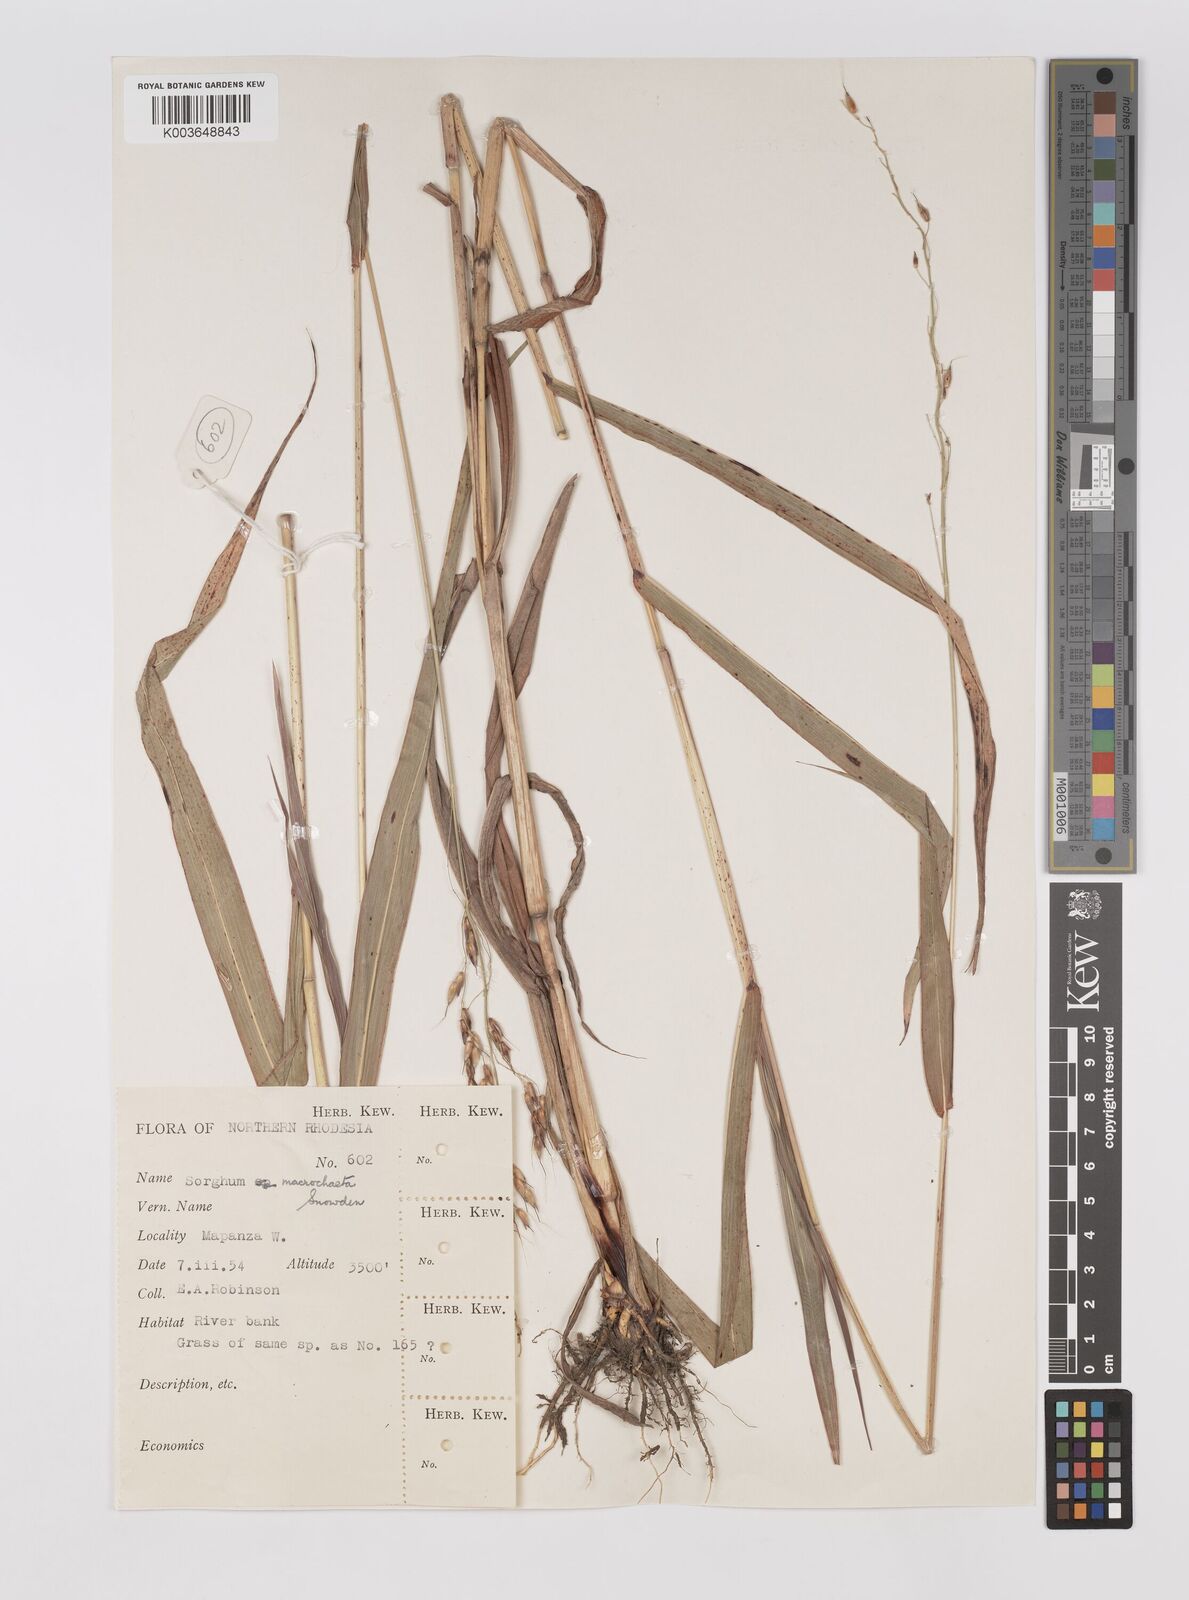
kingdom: Plantae
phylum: Tracheophyta
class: Liliopsida
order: Poales
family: Poaceae
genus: Sorghum
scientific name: Sorghum arundinaceum
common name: Sorghum
